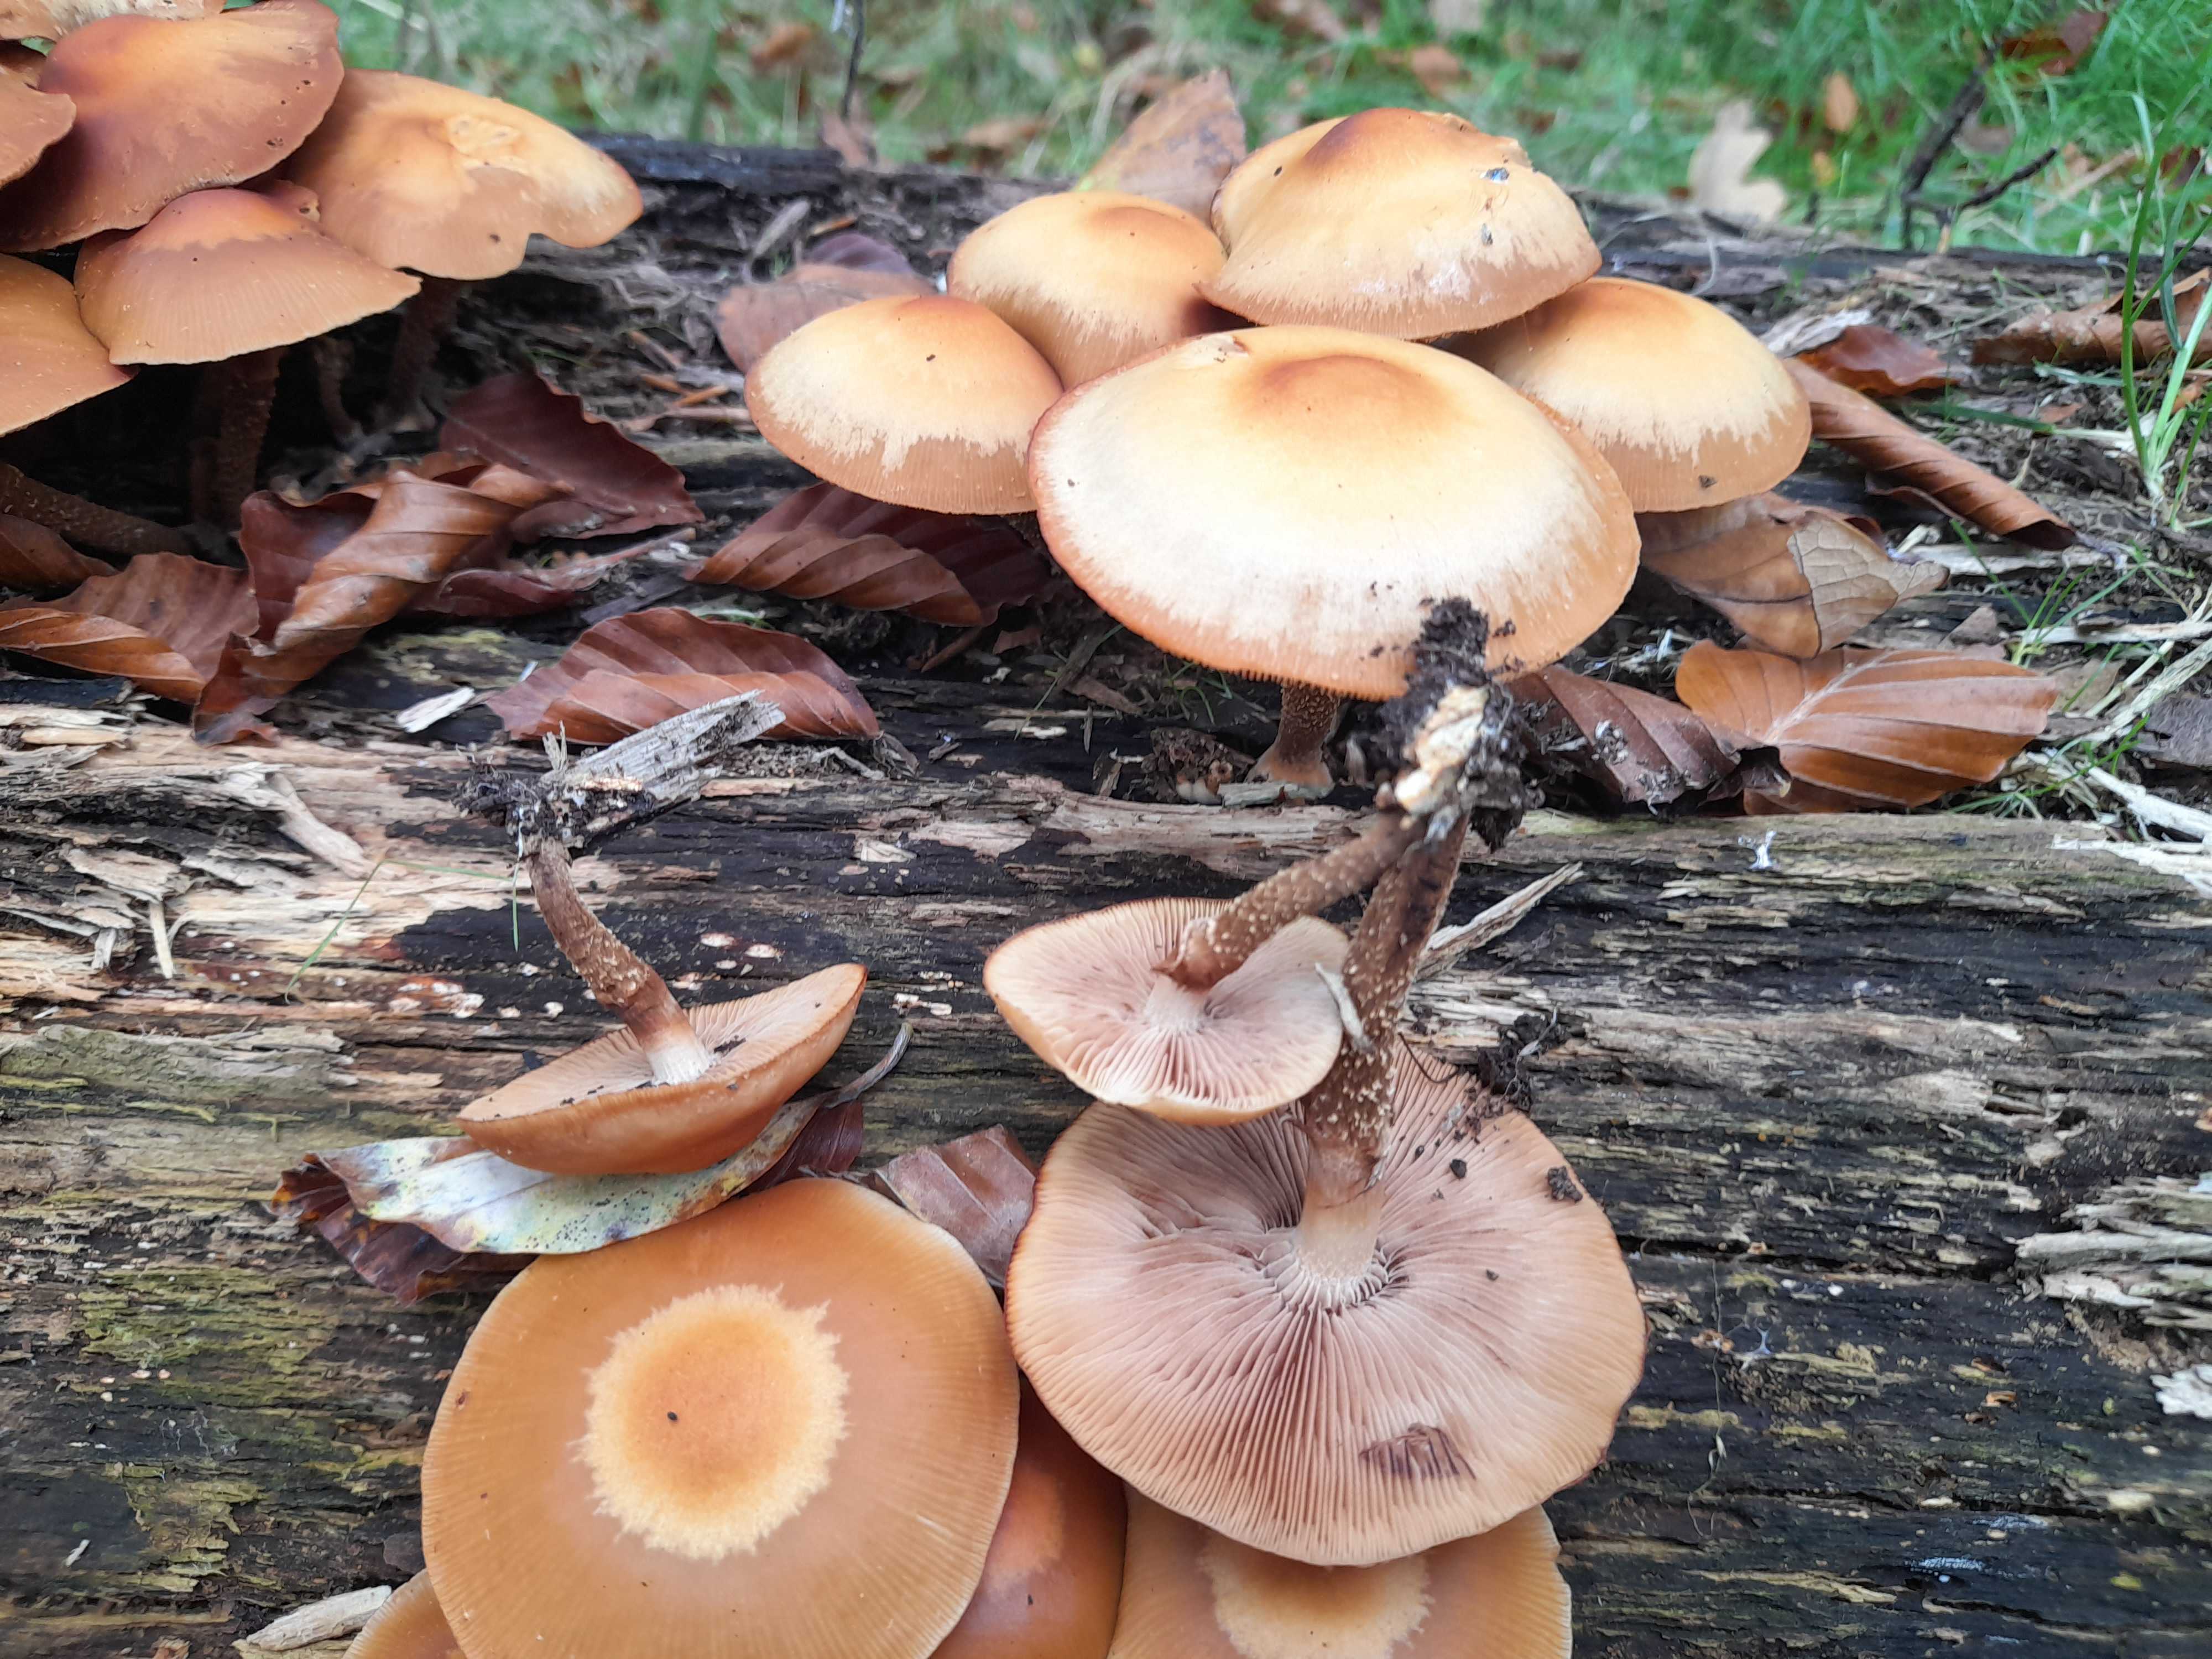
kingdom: Fungi
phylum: Basidiomycota
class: Agaricomycetes
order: Agaricales
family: Strophariaceae
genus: Kuehneromyces
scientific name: Kuehneromyces mutabilis
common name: foranderlig skælhat
